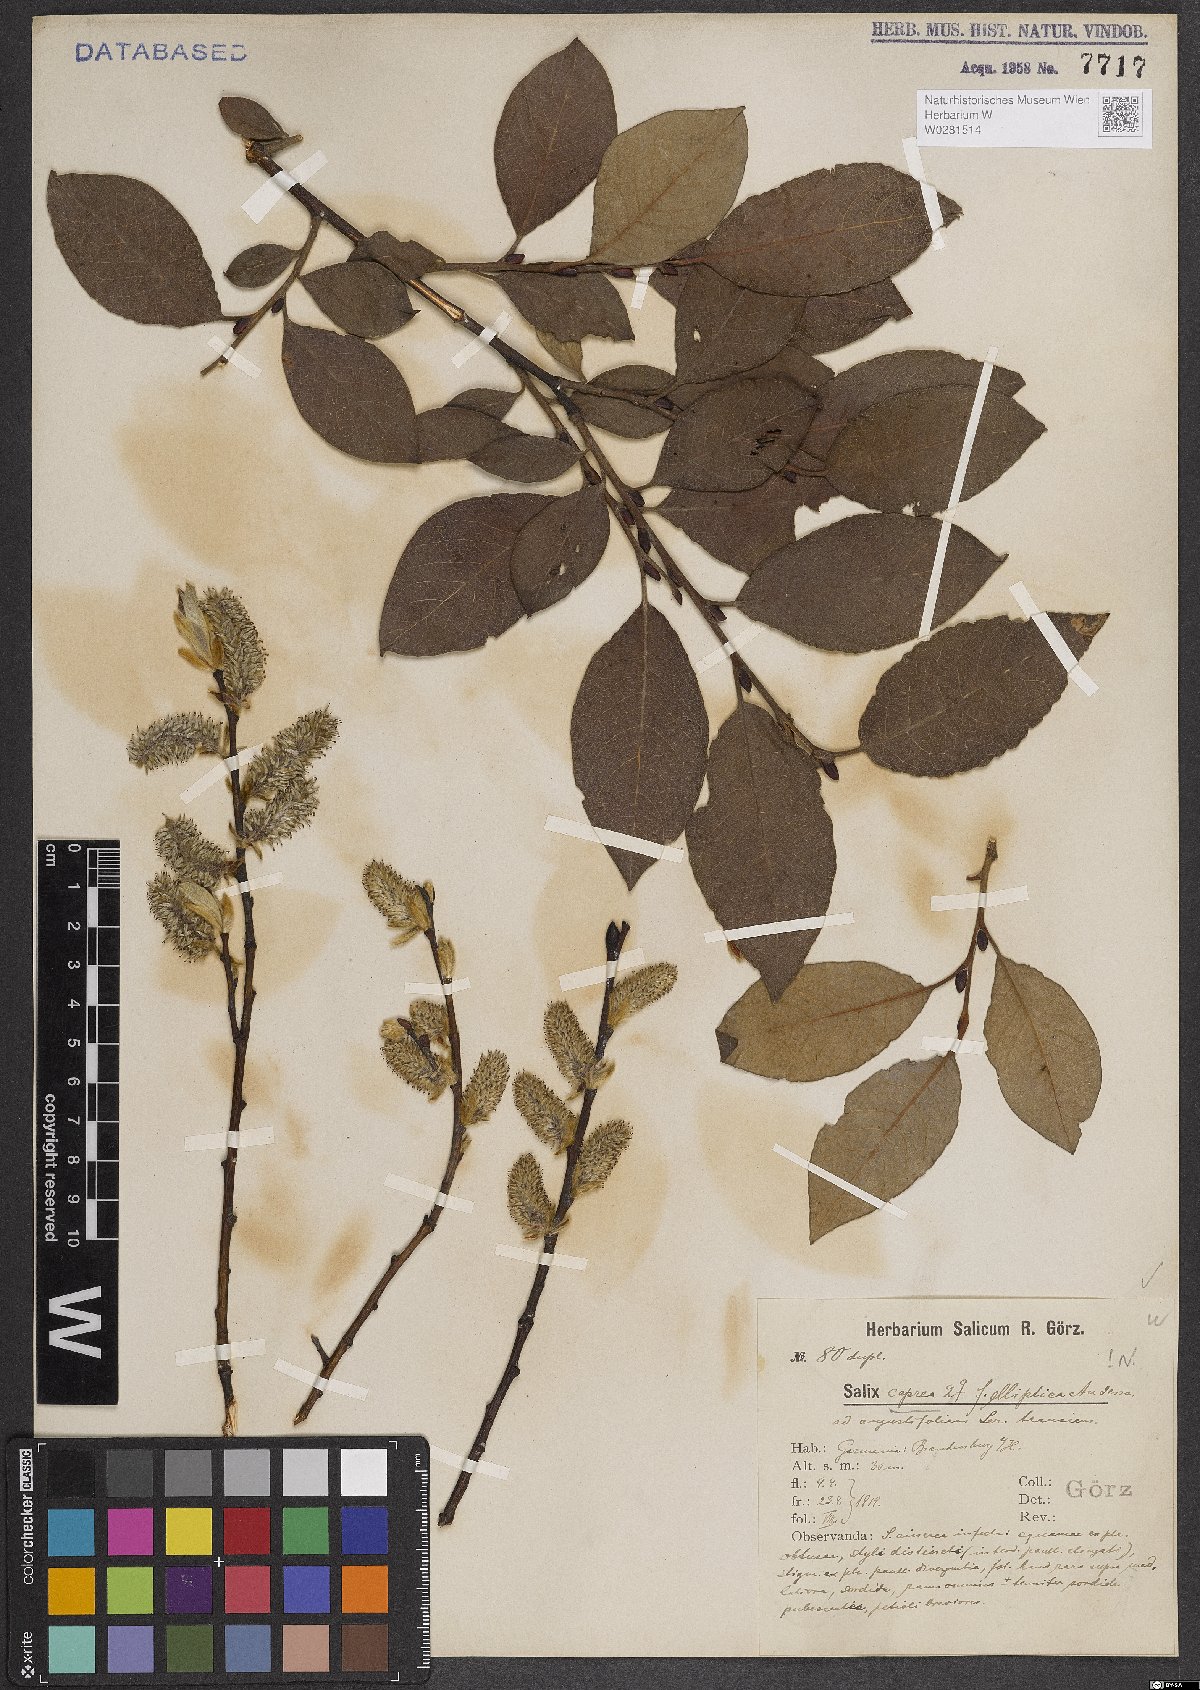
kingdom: Plantae
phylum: Tracheophyta
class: Magnoliopsida
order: Malpighiales
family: Salicaceae
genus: Salix
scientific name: Salix caprea
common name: Goat willow
